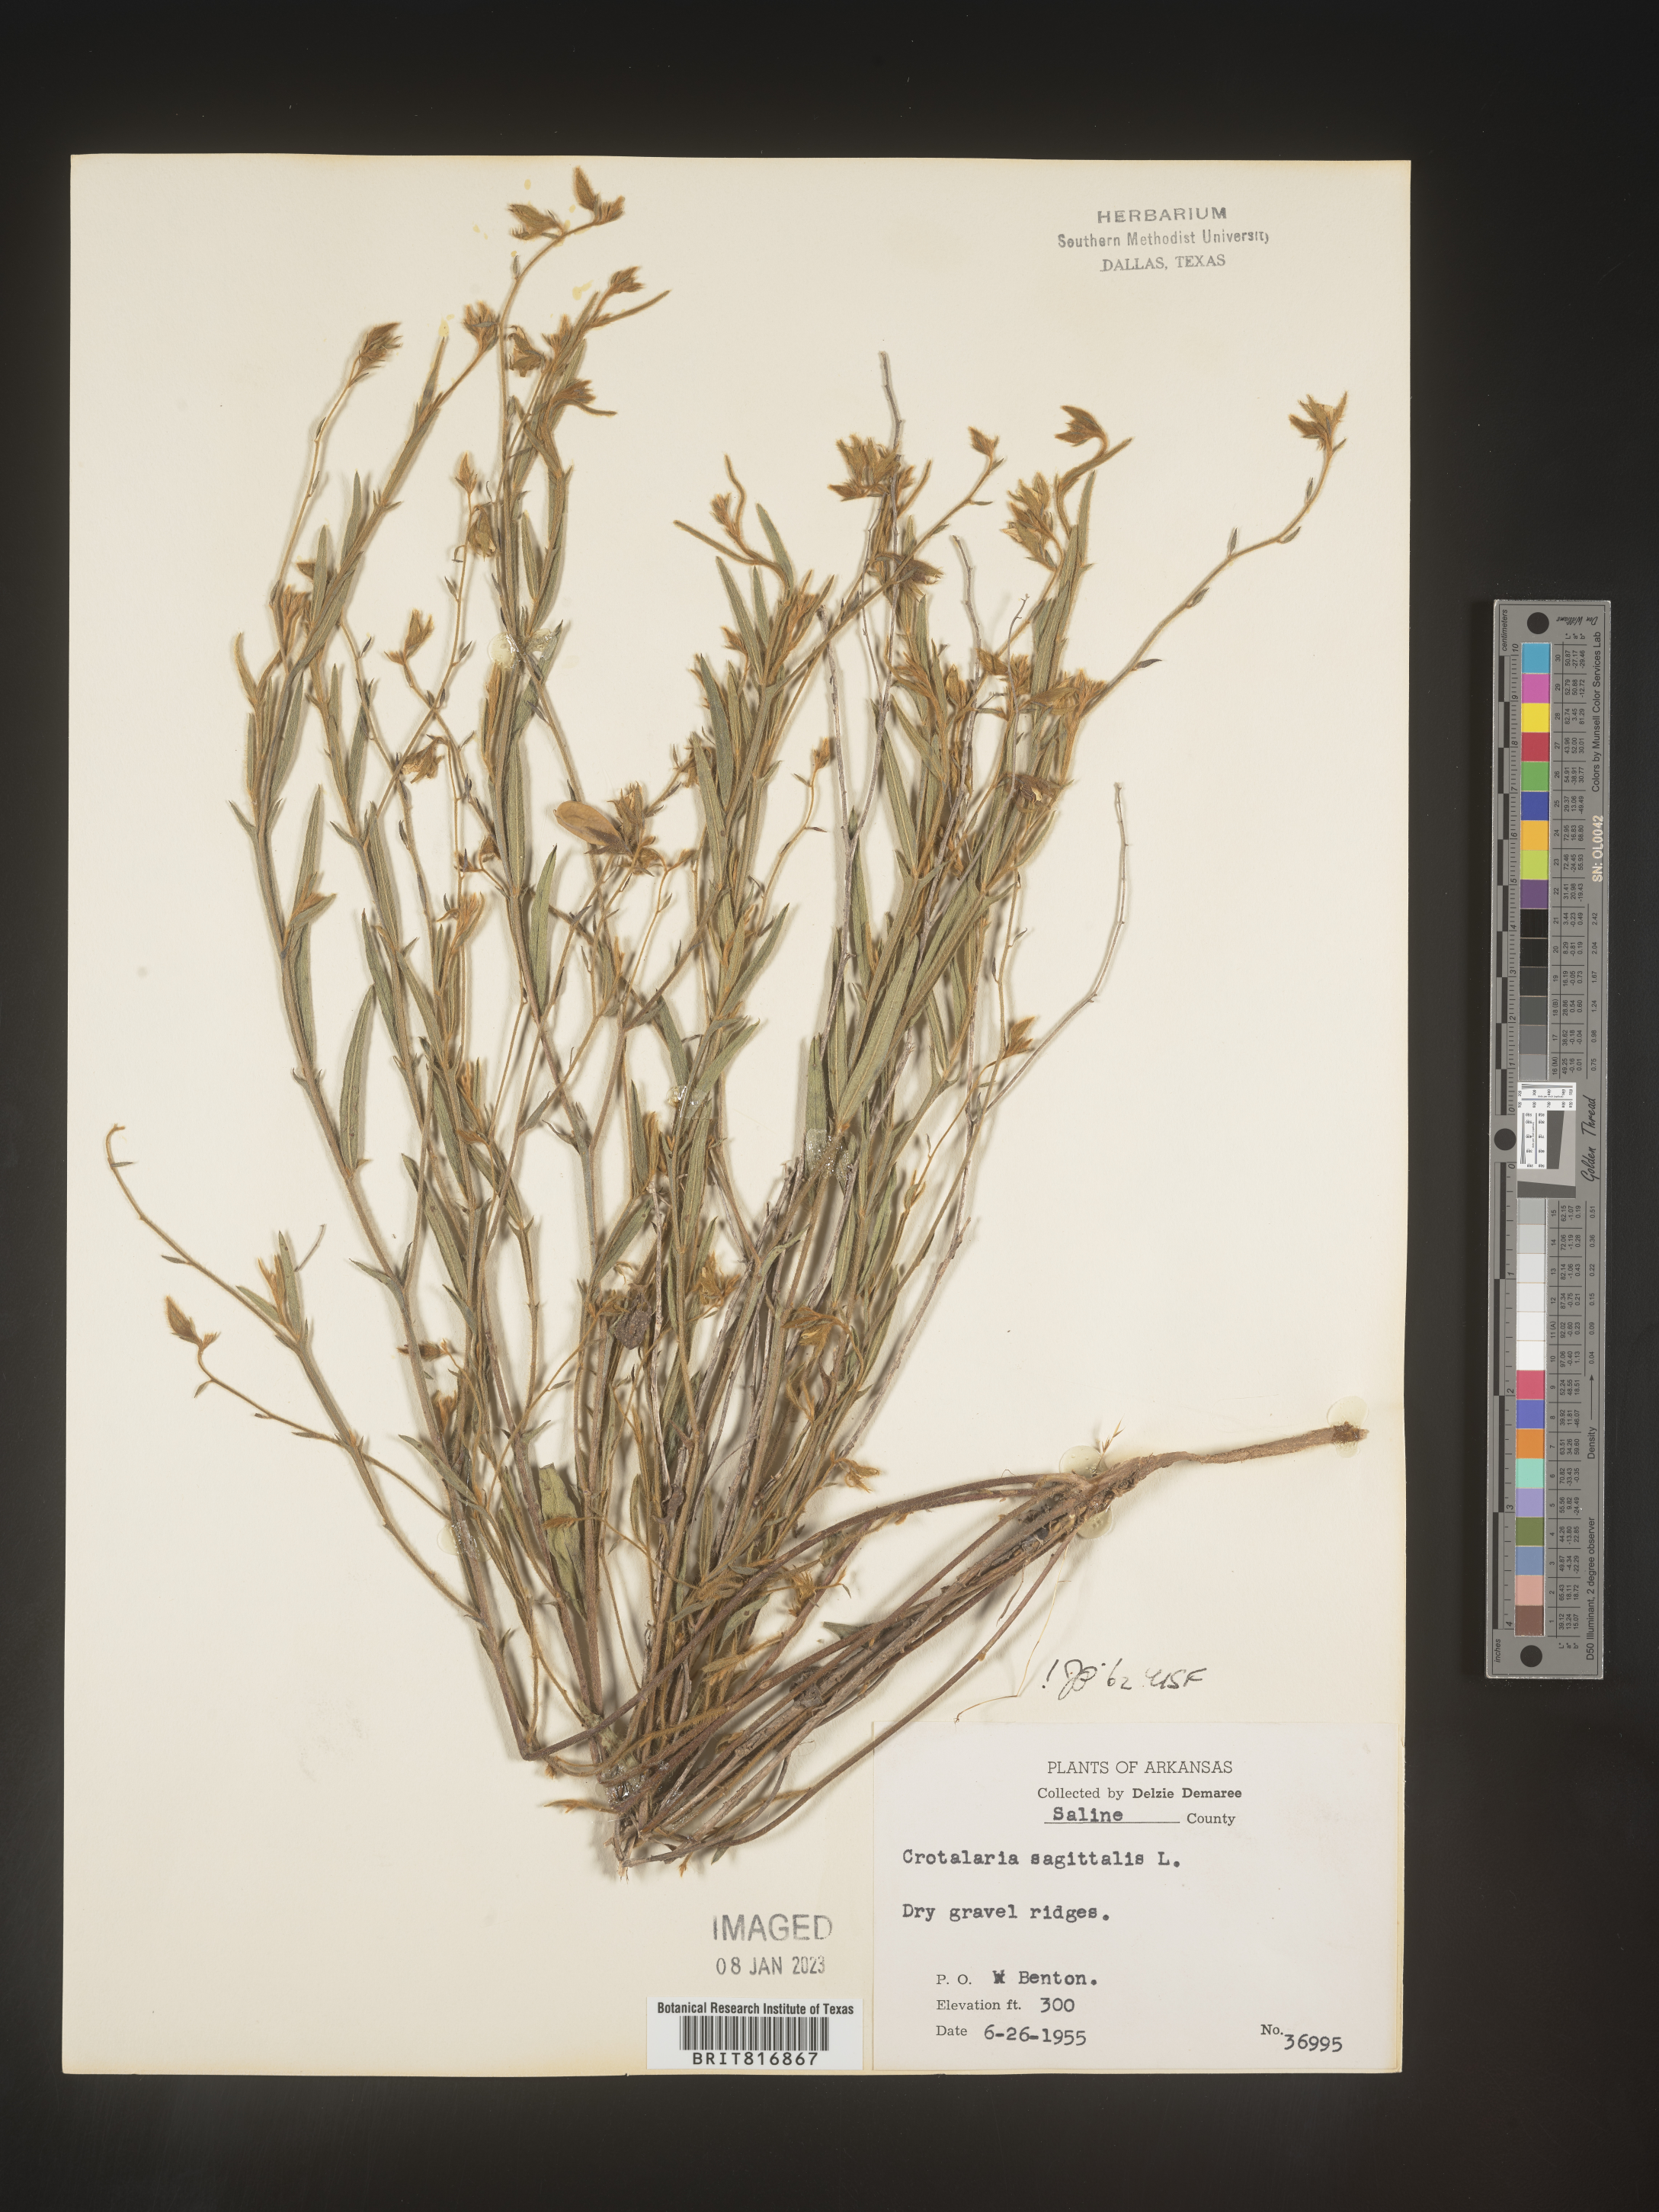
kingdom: Plantae
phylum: Tracheophyta
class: Magnoliopsida
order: Fabales
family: Fabaceae
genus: Crotalaria
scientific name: Crotalaria sagittalis
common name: Arrowhead rattlebox
